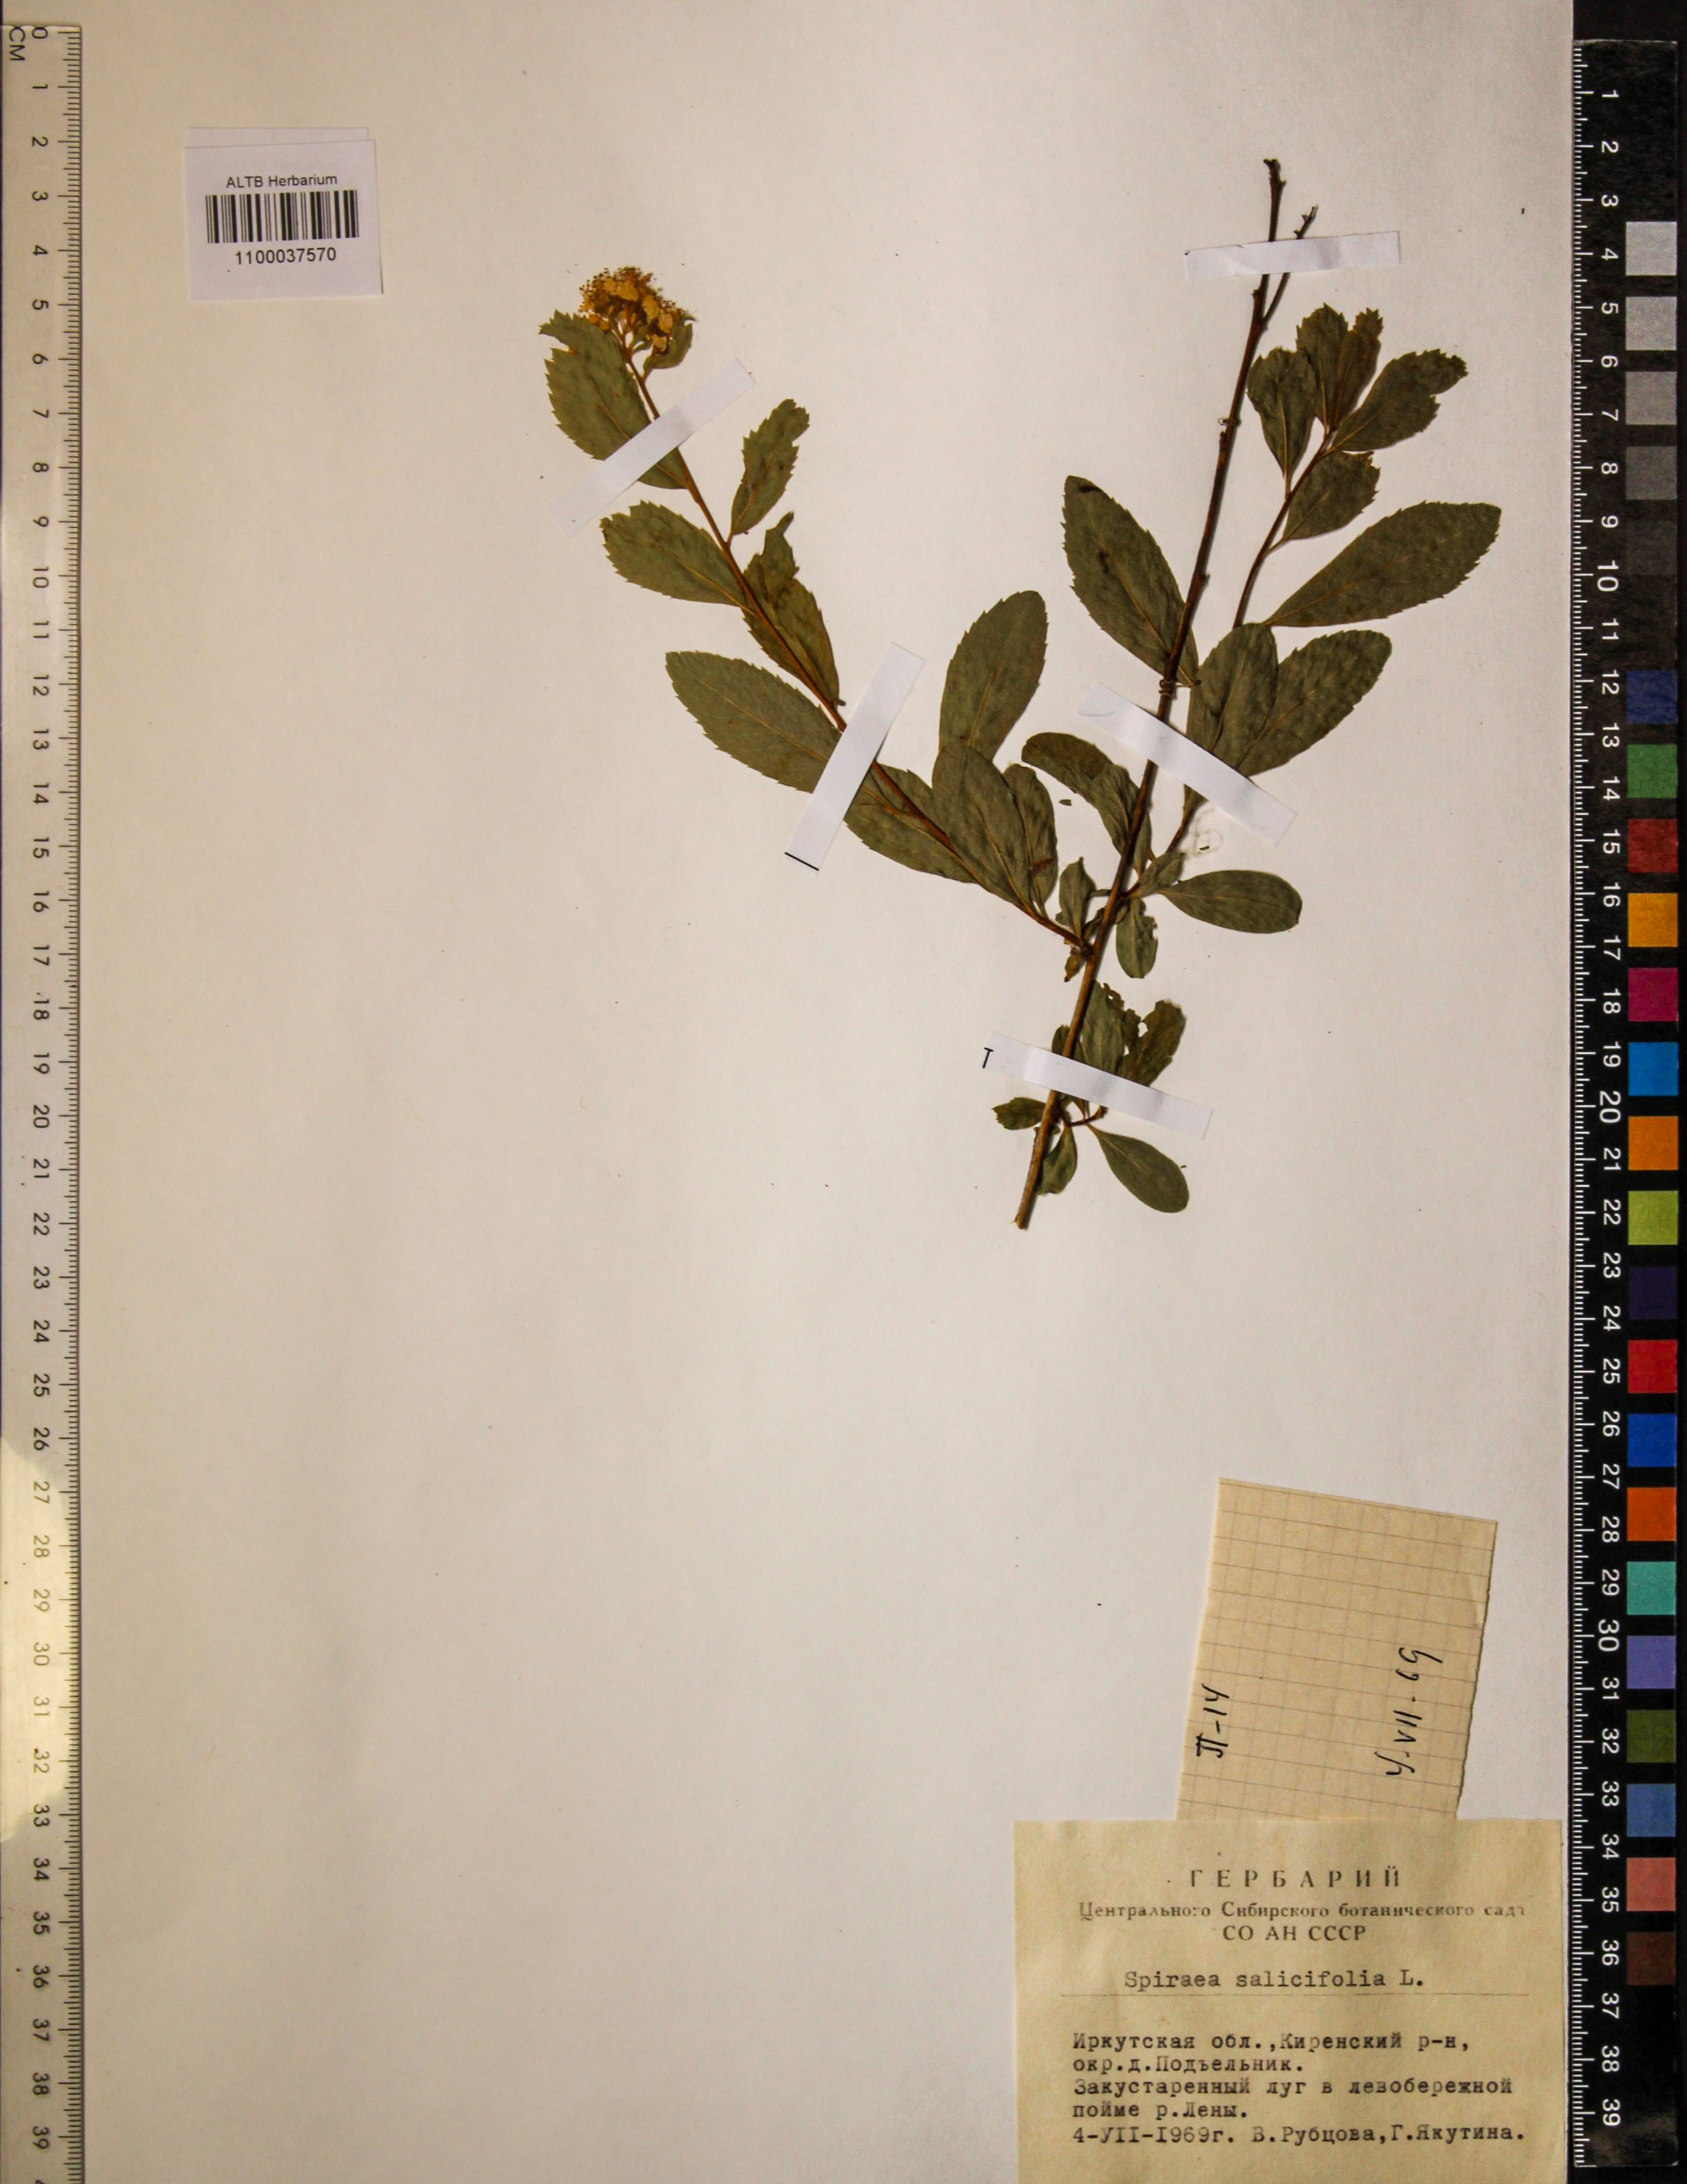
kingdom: Plantae
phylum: Tracheophyta
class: Magnoliopsida
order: Rosales
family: Rosaceae
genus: Spiraea
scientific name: Spiraea salicifolia
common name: Bridewort
